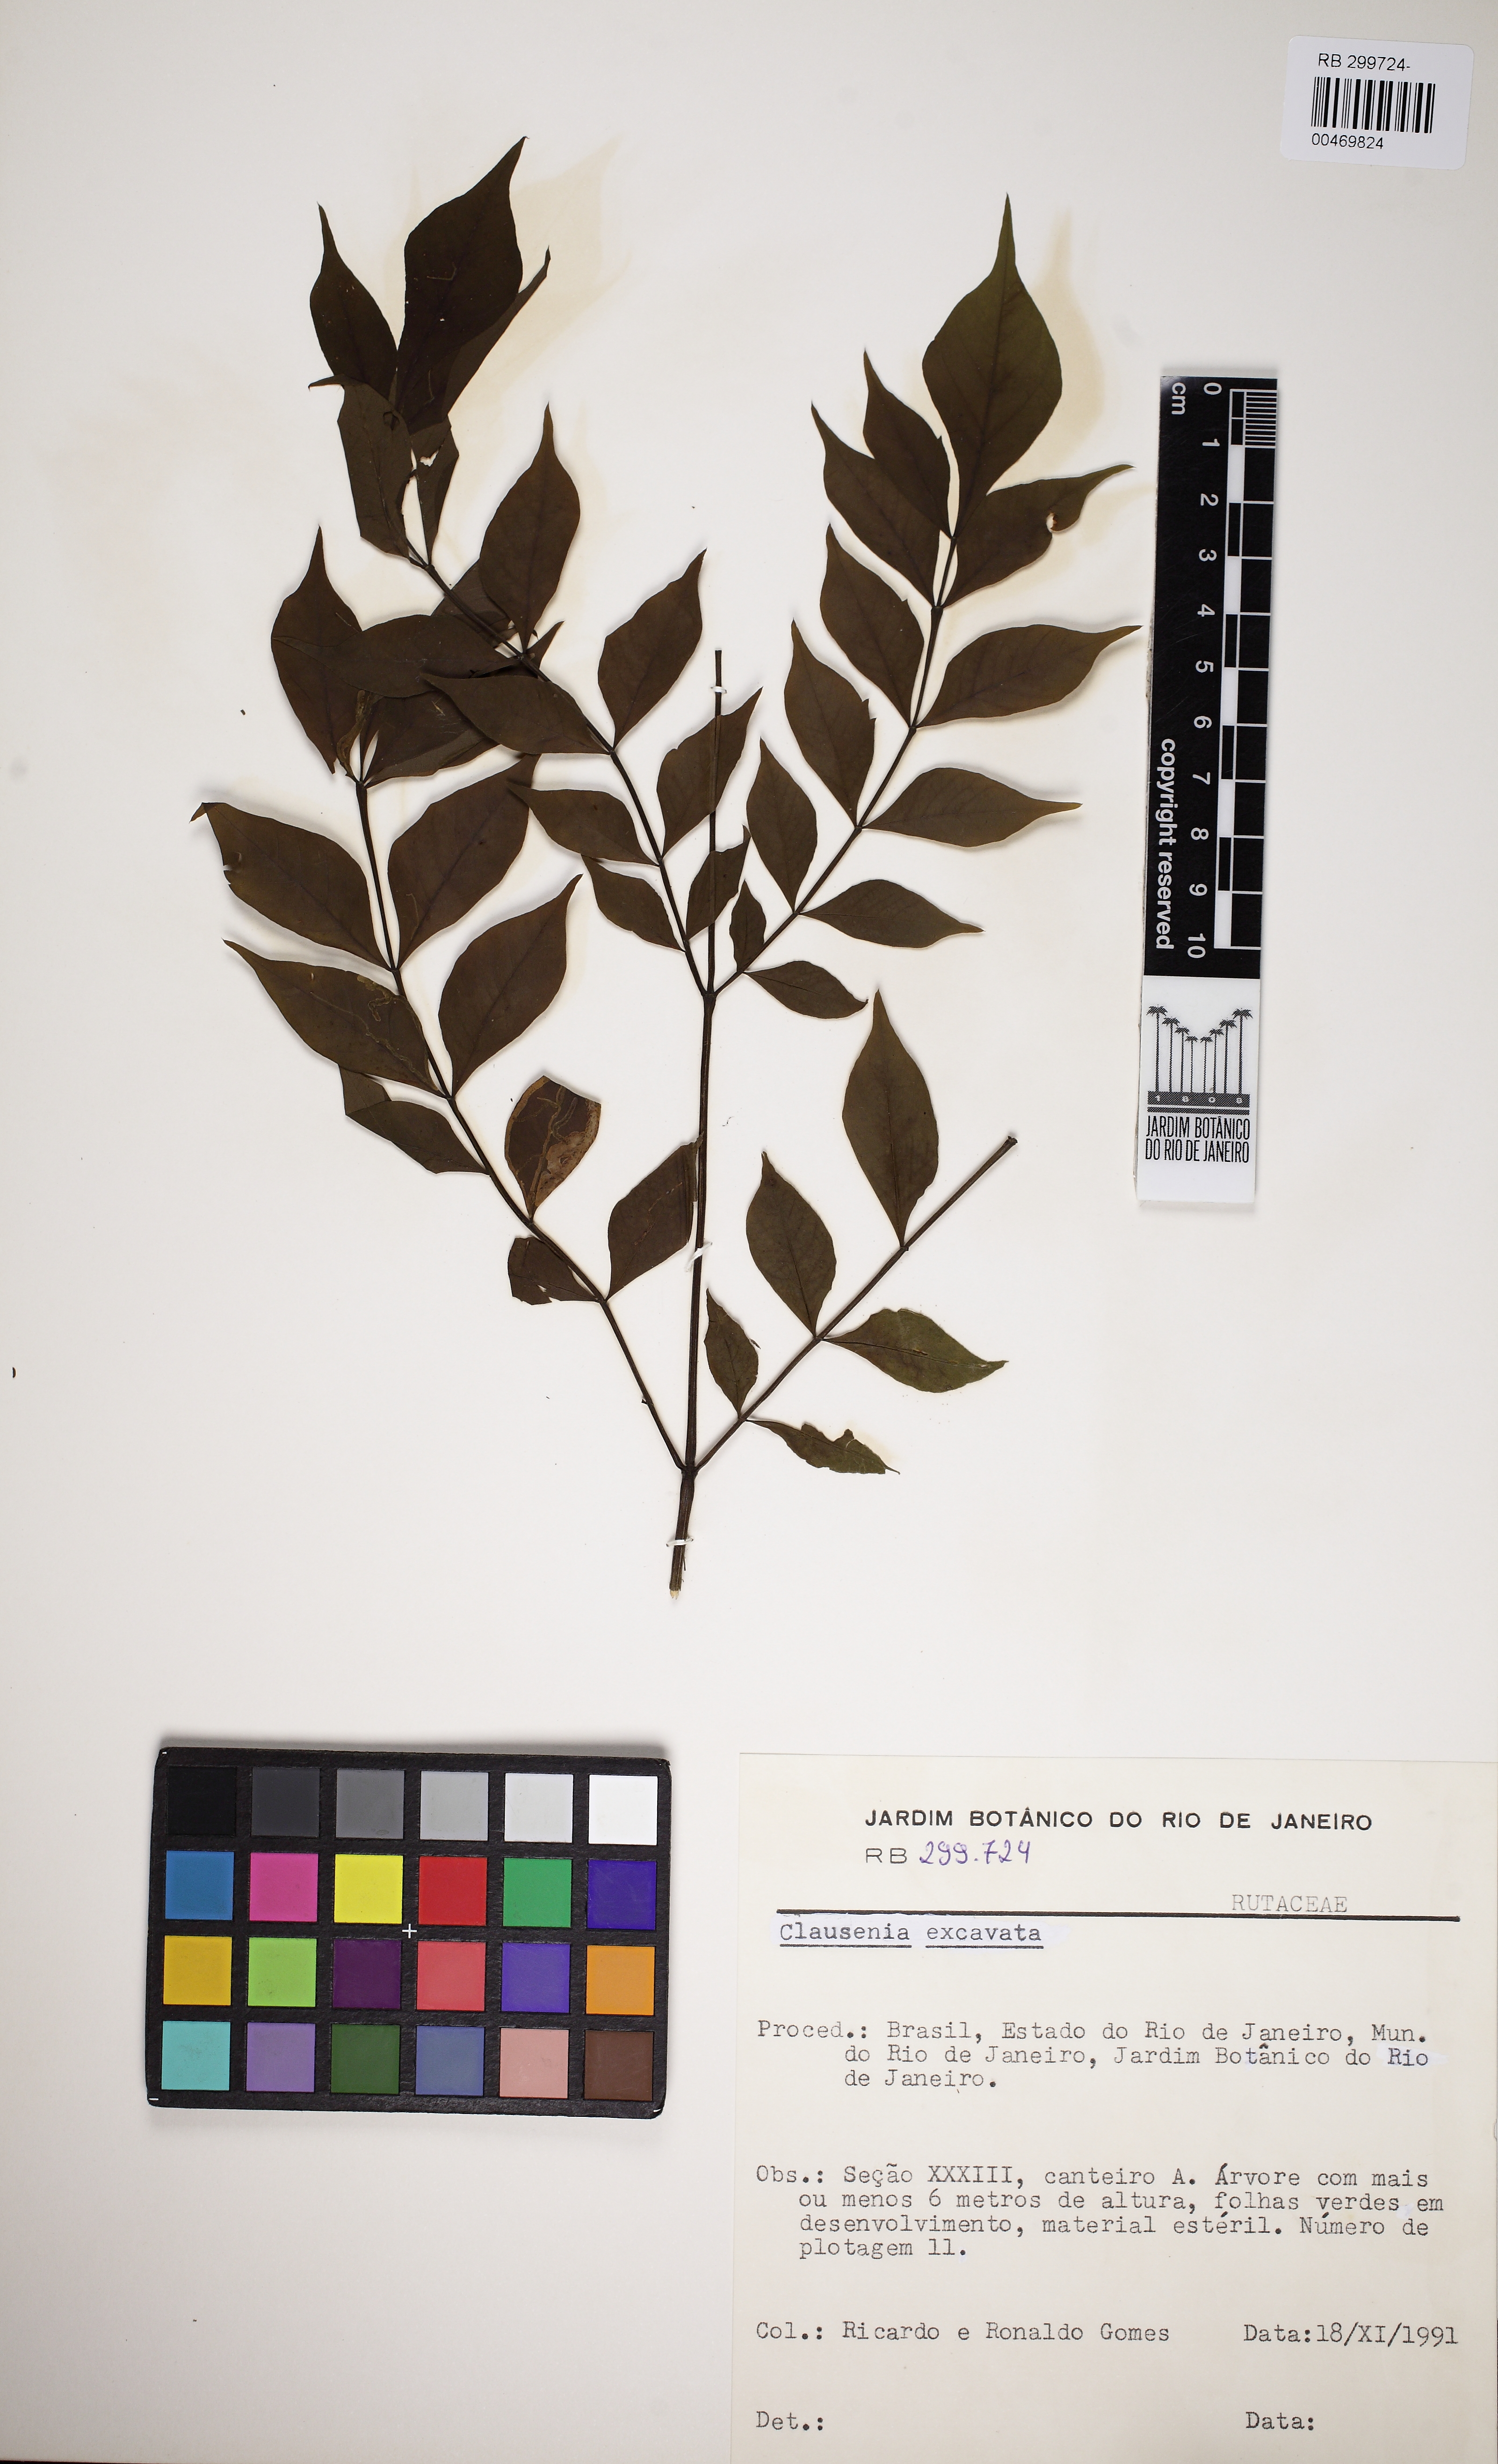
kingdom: Plantae
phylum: Tracheophyta
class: Magnoliopsida
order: Sapindales
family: Rutaceae
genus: Clausena
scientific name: Clausena excavata
